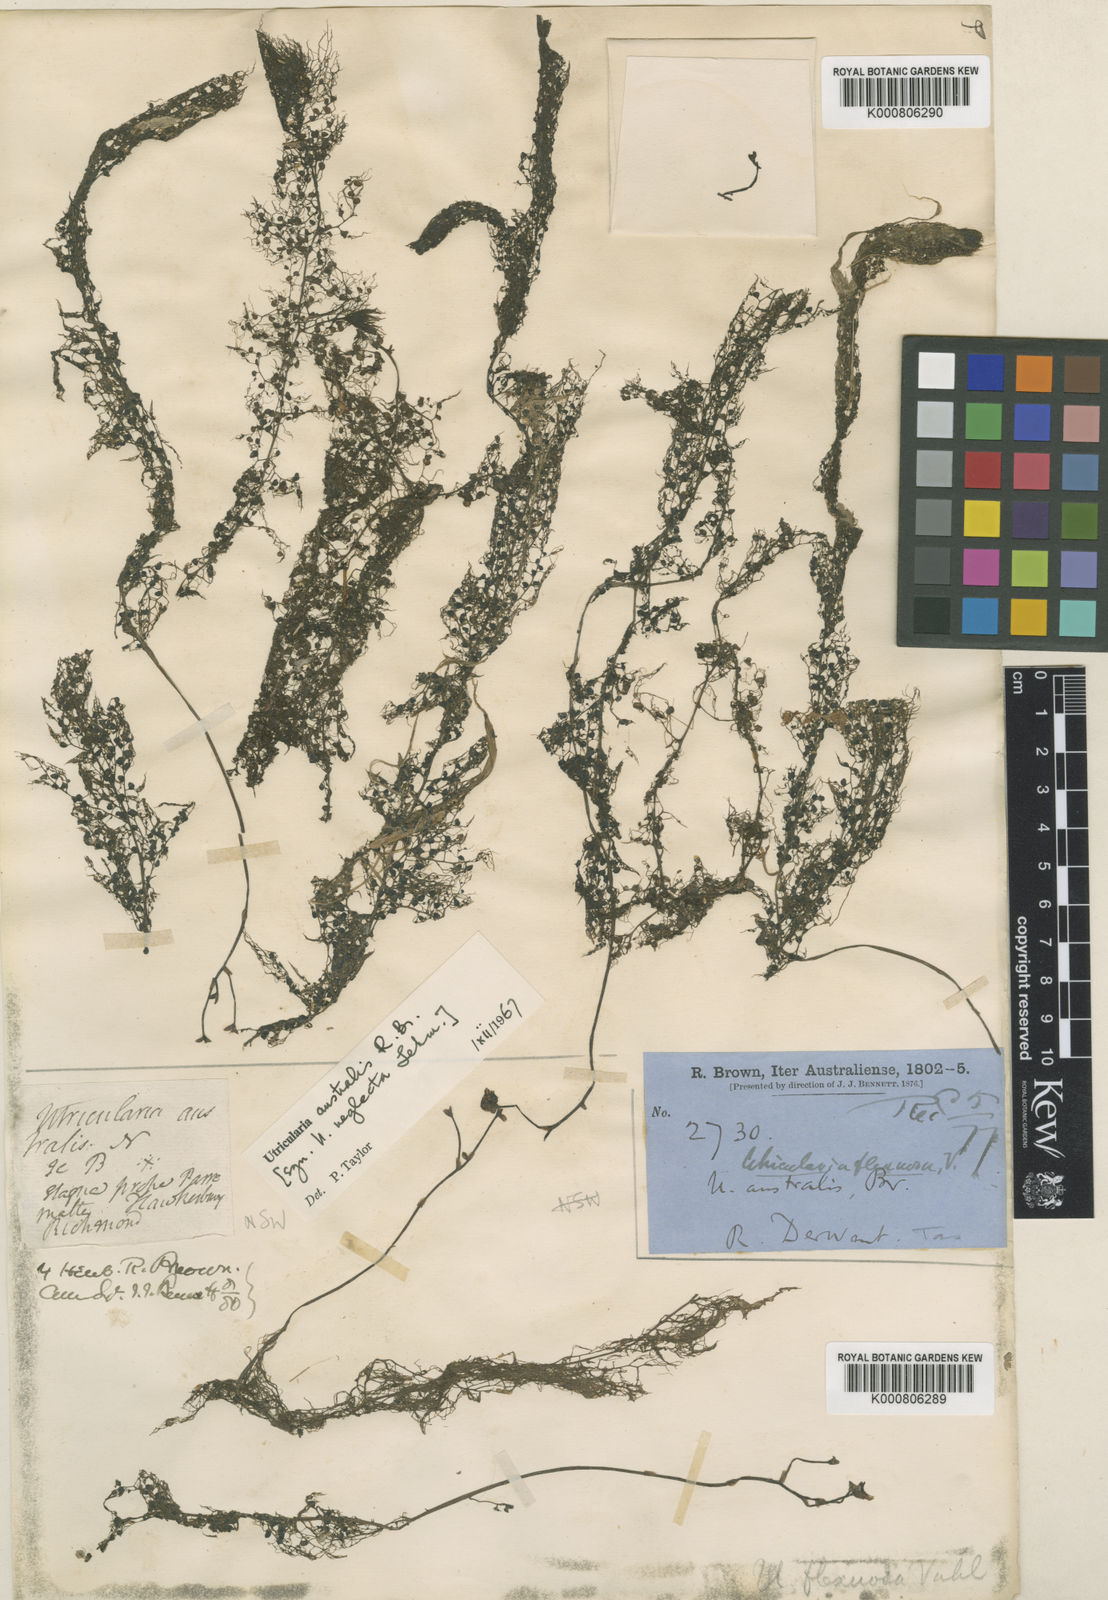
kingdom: Plantae
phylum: Tracheophyta
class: Magnoliopsida
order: Lamiales
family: Lentibulariaceae
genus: Utricularia
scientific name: Utricularia australis
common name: Bladderwort
